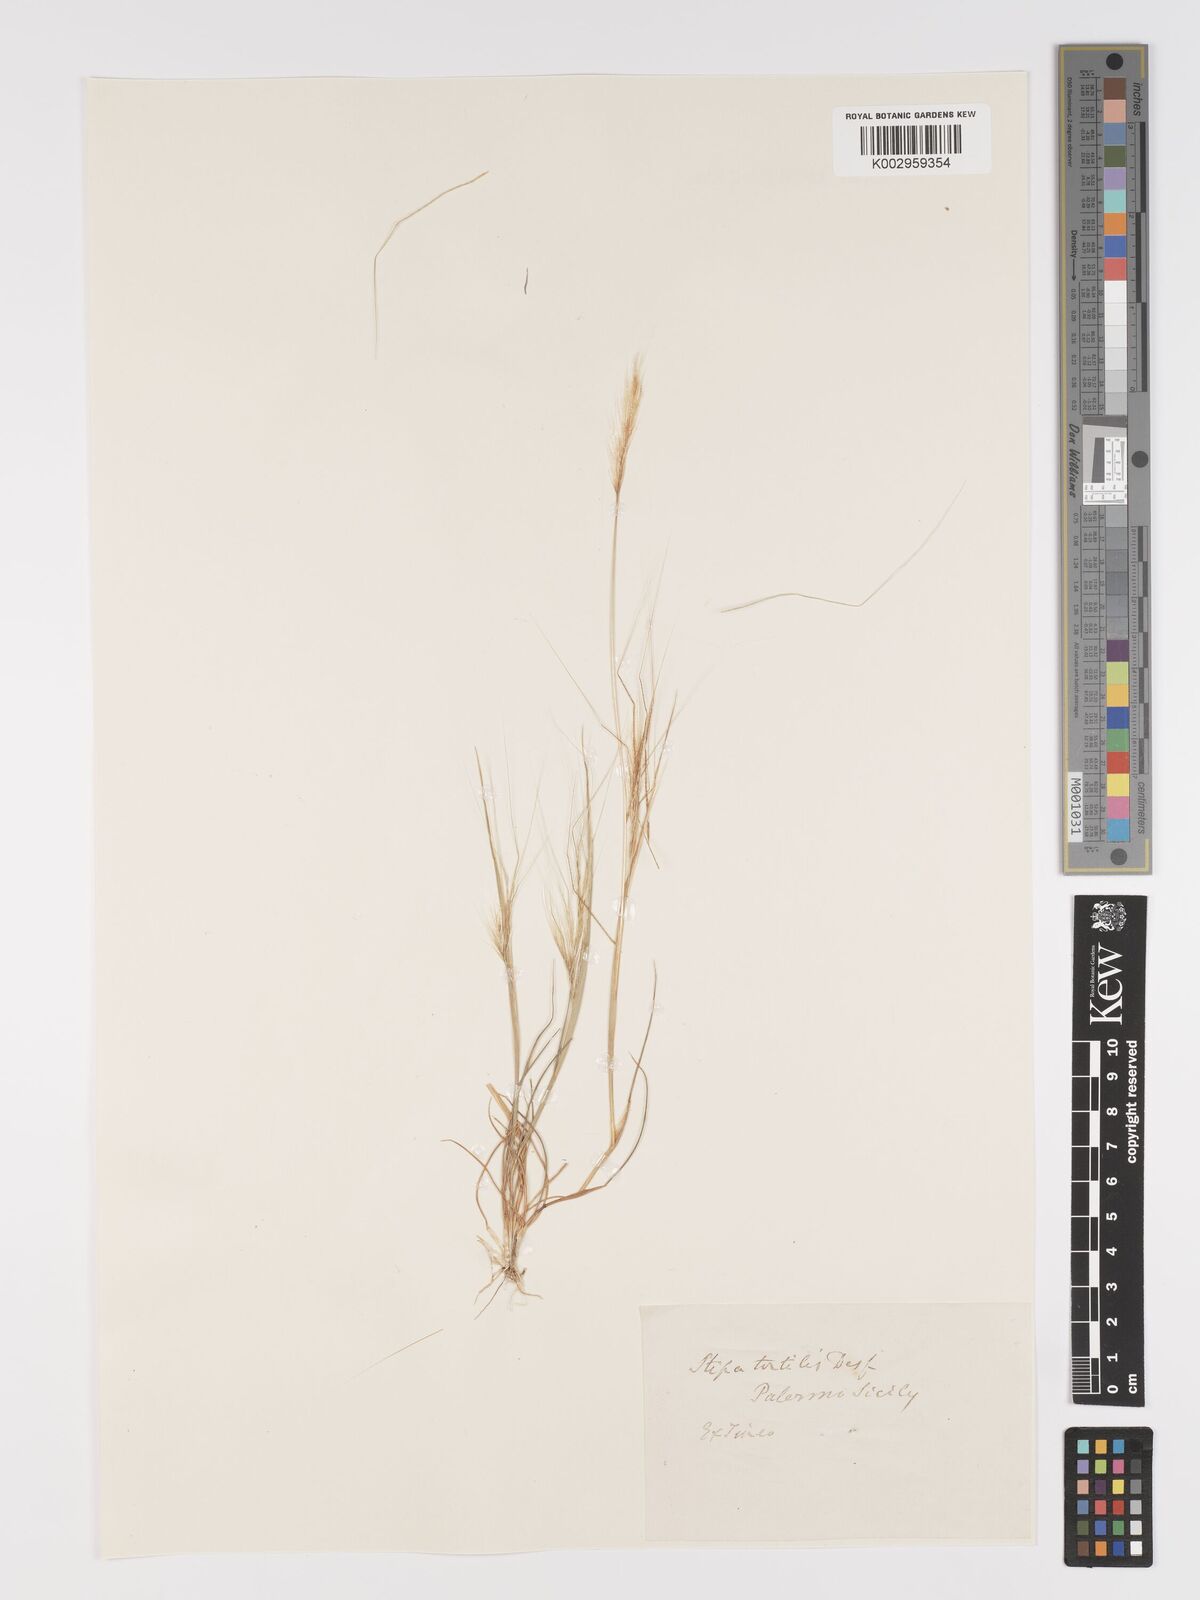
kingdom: Plantae
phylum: Tracheophyta
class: Liliopsida
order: Poales
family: Poaceae
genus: Stipellula
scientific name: Stipellula capensis
